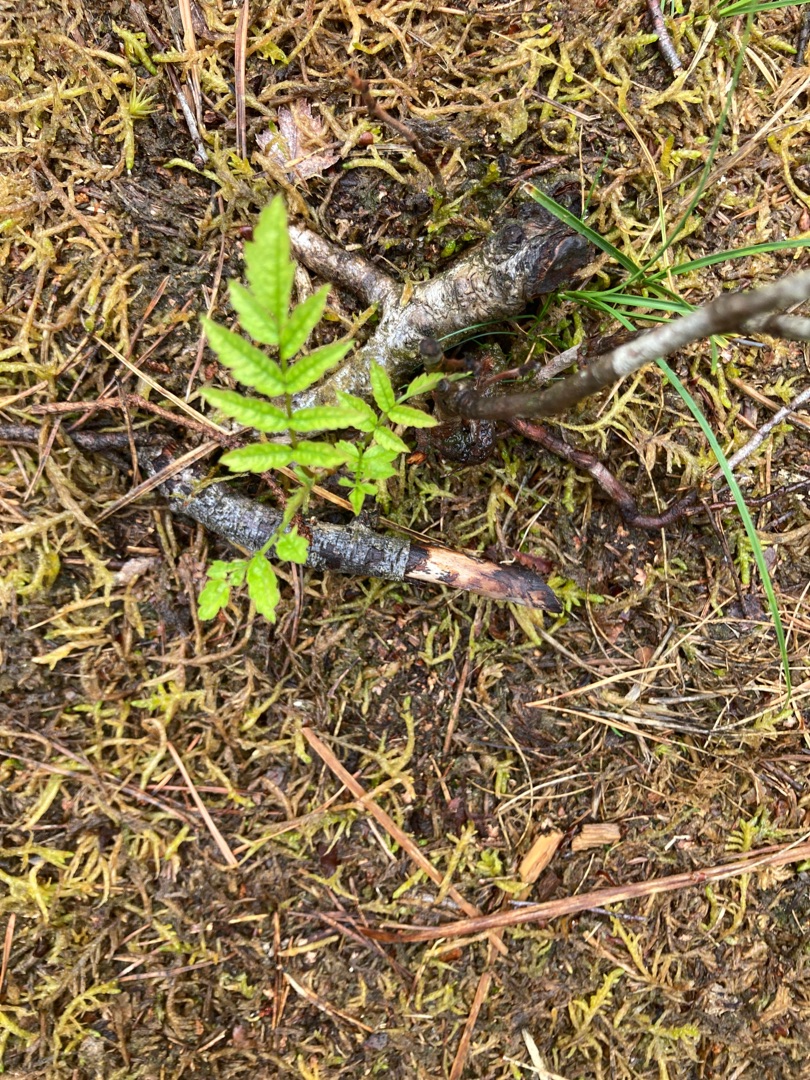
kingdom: Plantae
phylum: Tracheophyta
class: Magnoliopsida
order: Rosales
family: Rosaceae
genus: Sorbus
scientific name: Sorbus aucuparia
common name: Almindelig røn
